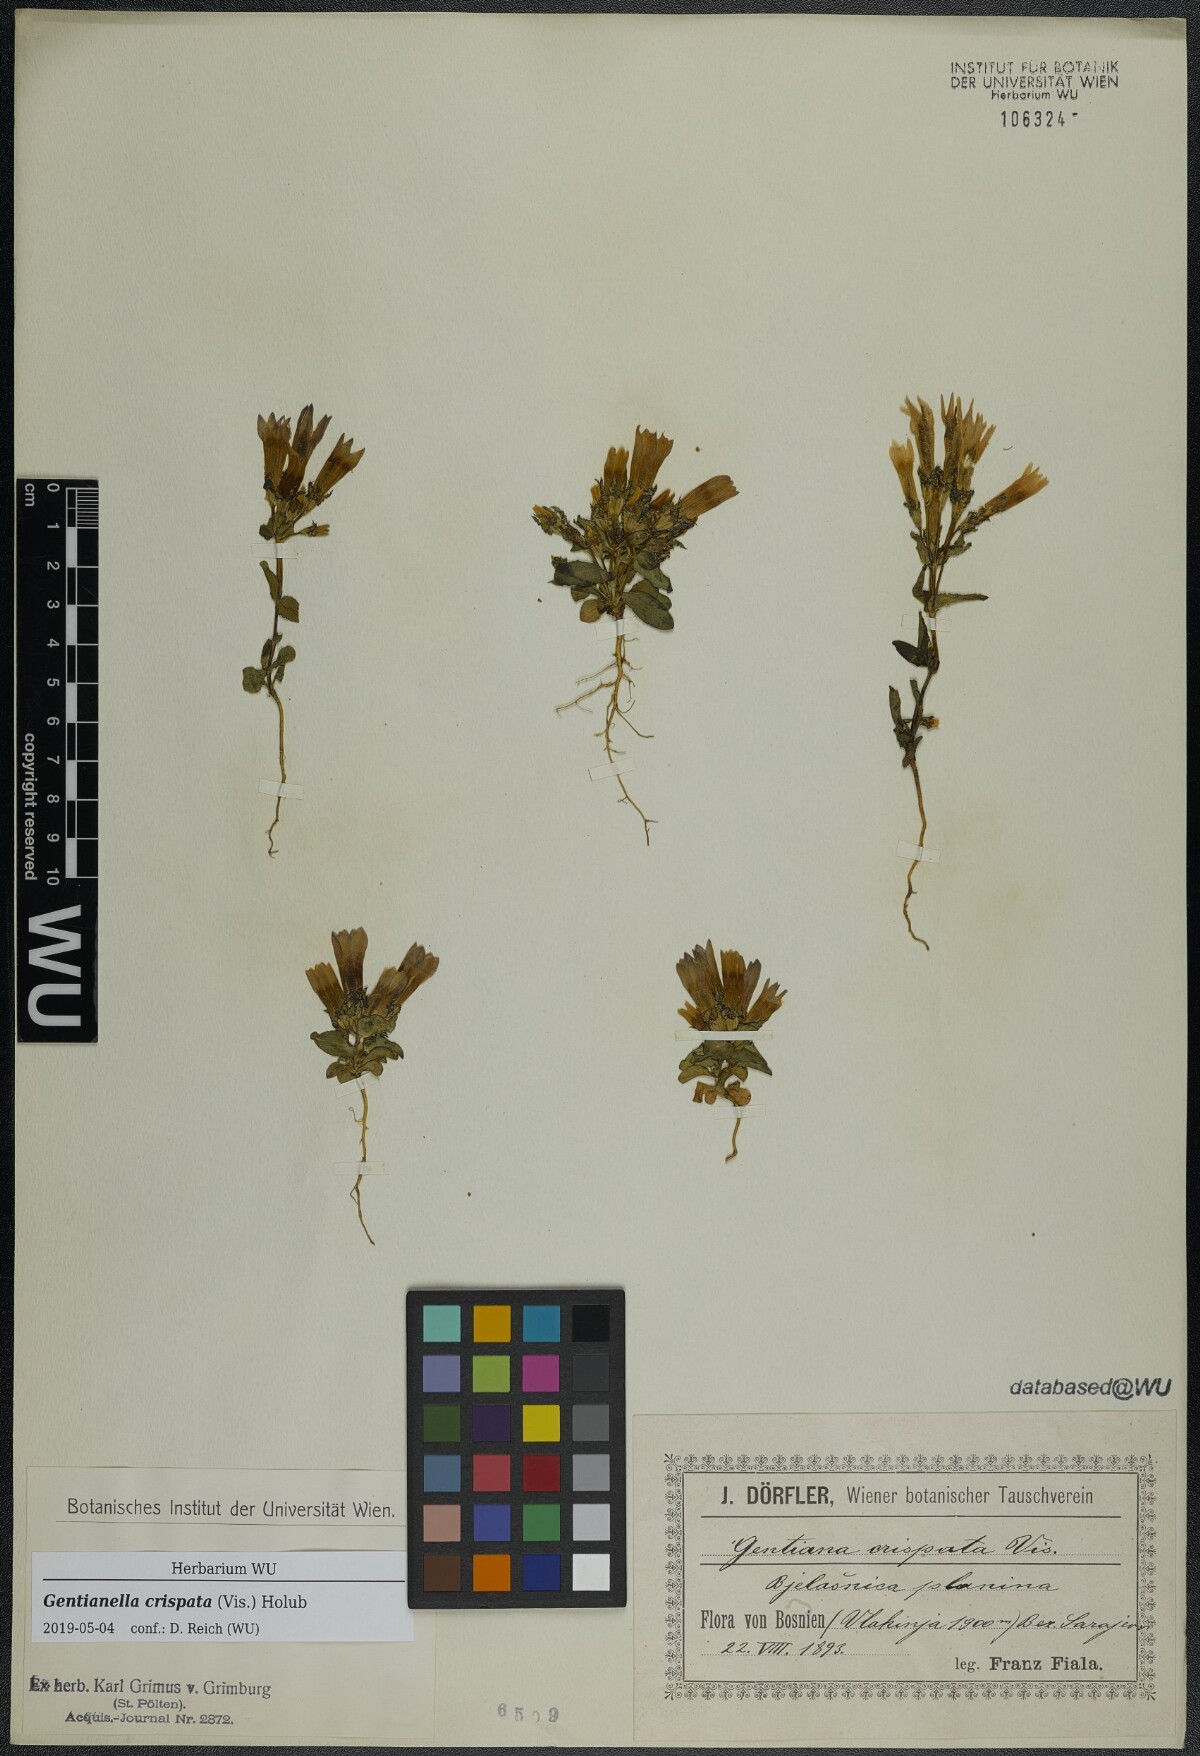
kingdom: Plantae
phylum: Tracheophyta
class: Magnoliopsida
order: Gentianales
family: Gentianaceae
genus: Gentianella
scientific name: Gentianella crispata
